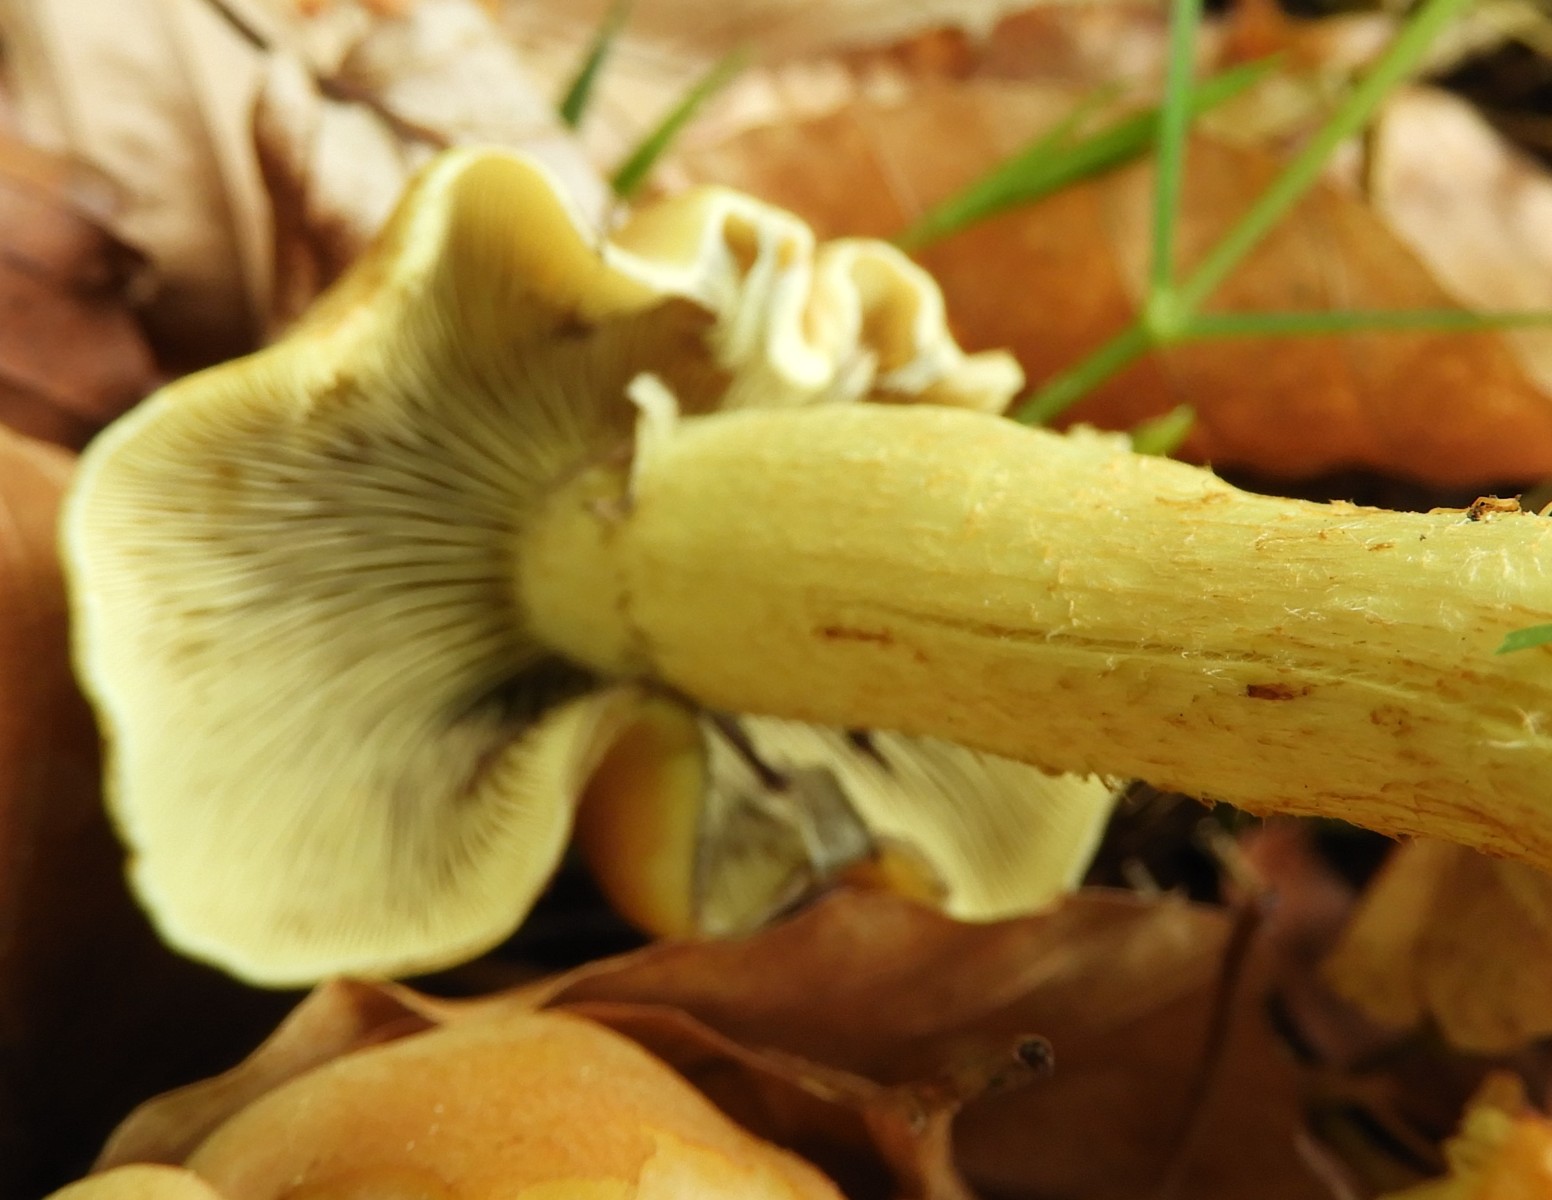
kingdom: Fungi
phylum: Basidiomycota
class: Agaricomycetes
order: Agaricales
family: Strophariaceae
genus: Hypholoma
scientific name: Hypholoma fasciculare
